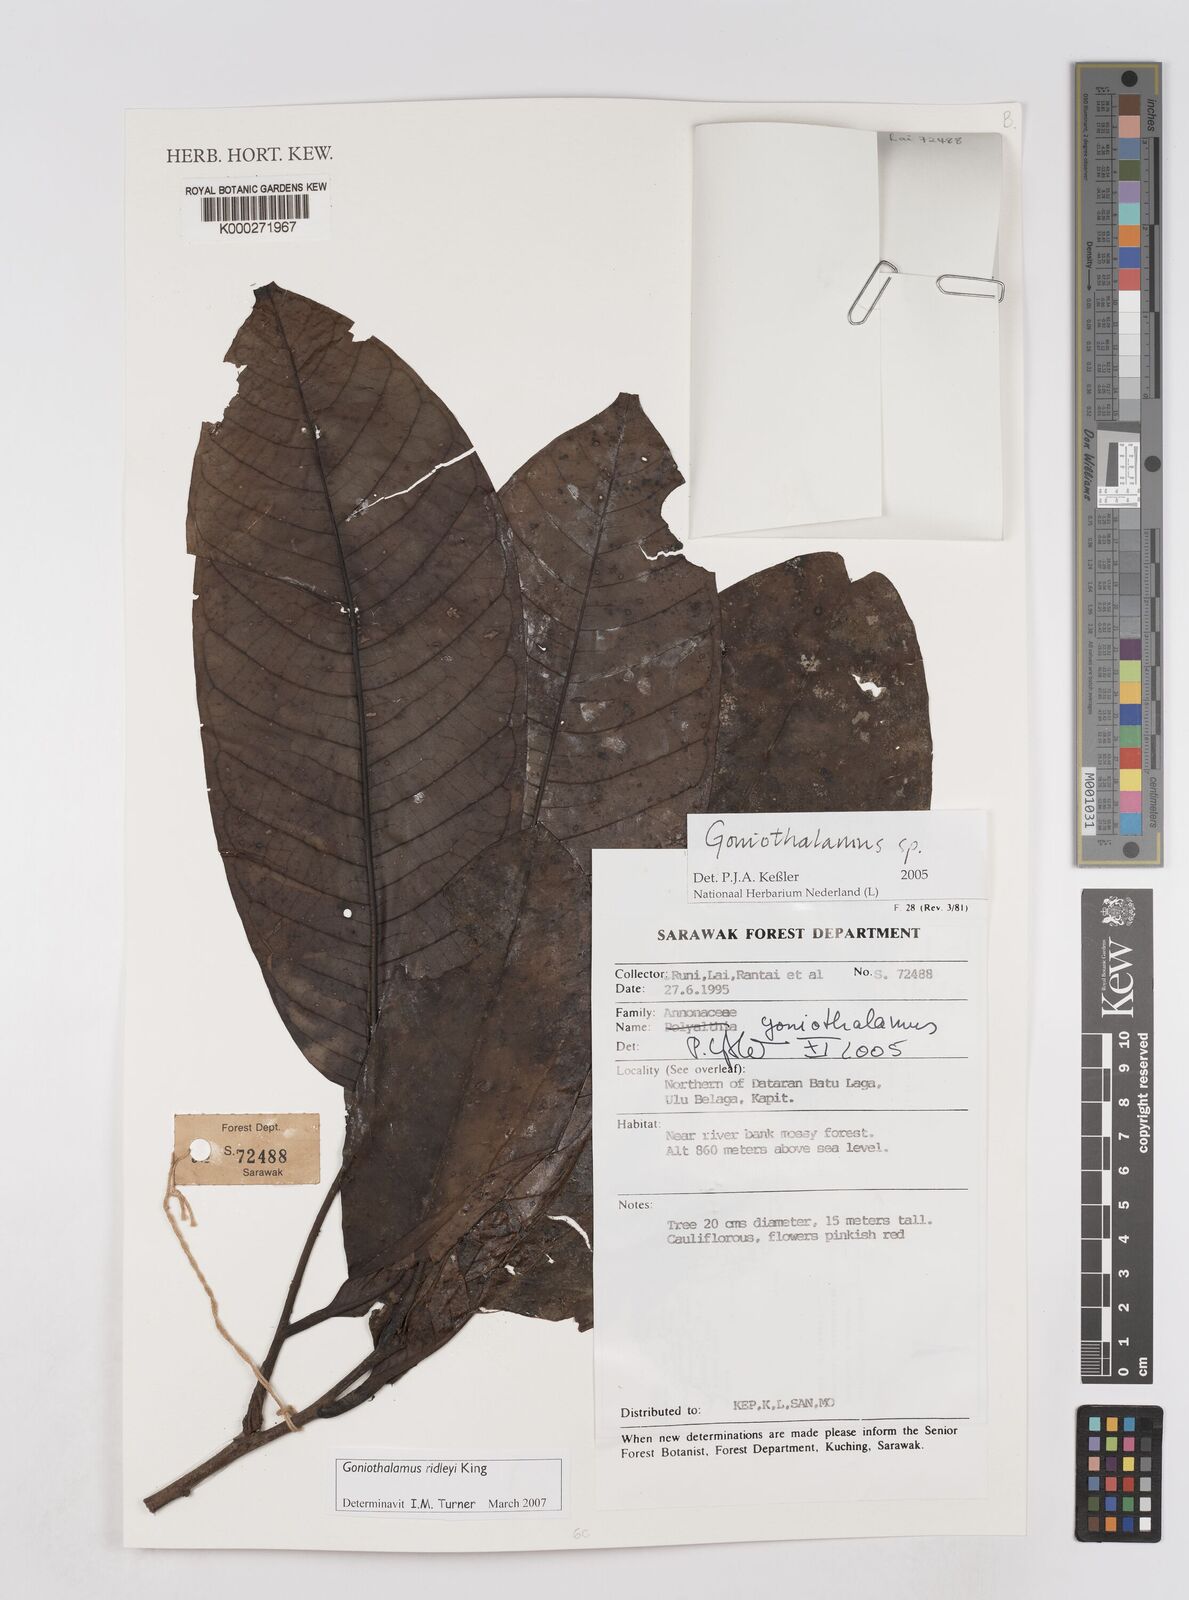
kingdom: Plantae
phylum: Tracheophyta
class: Magnoliopsida
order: Magnoliales
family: Annonaceae
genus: Goniothalamus
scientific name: Goniothalamus
